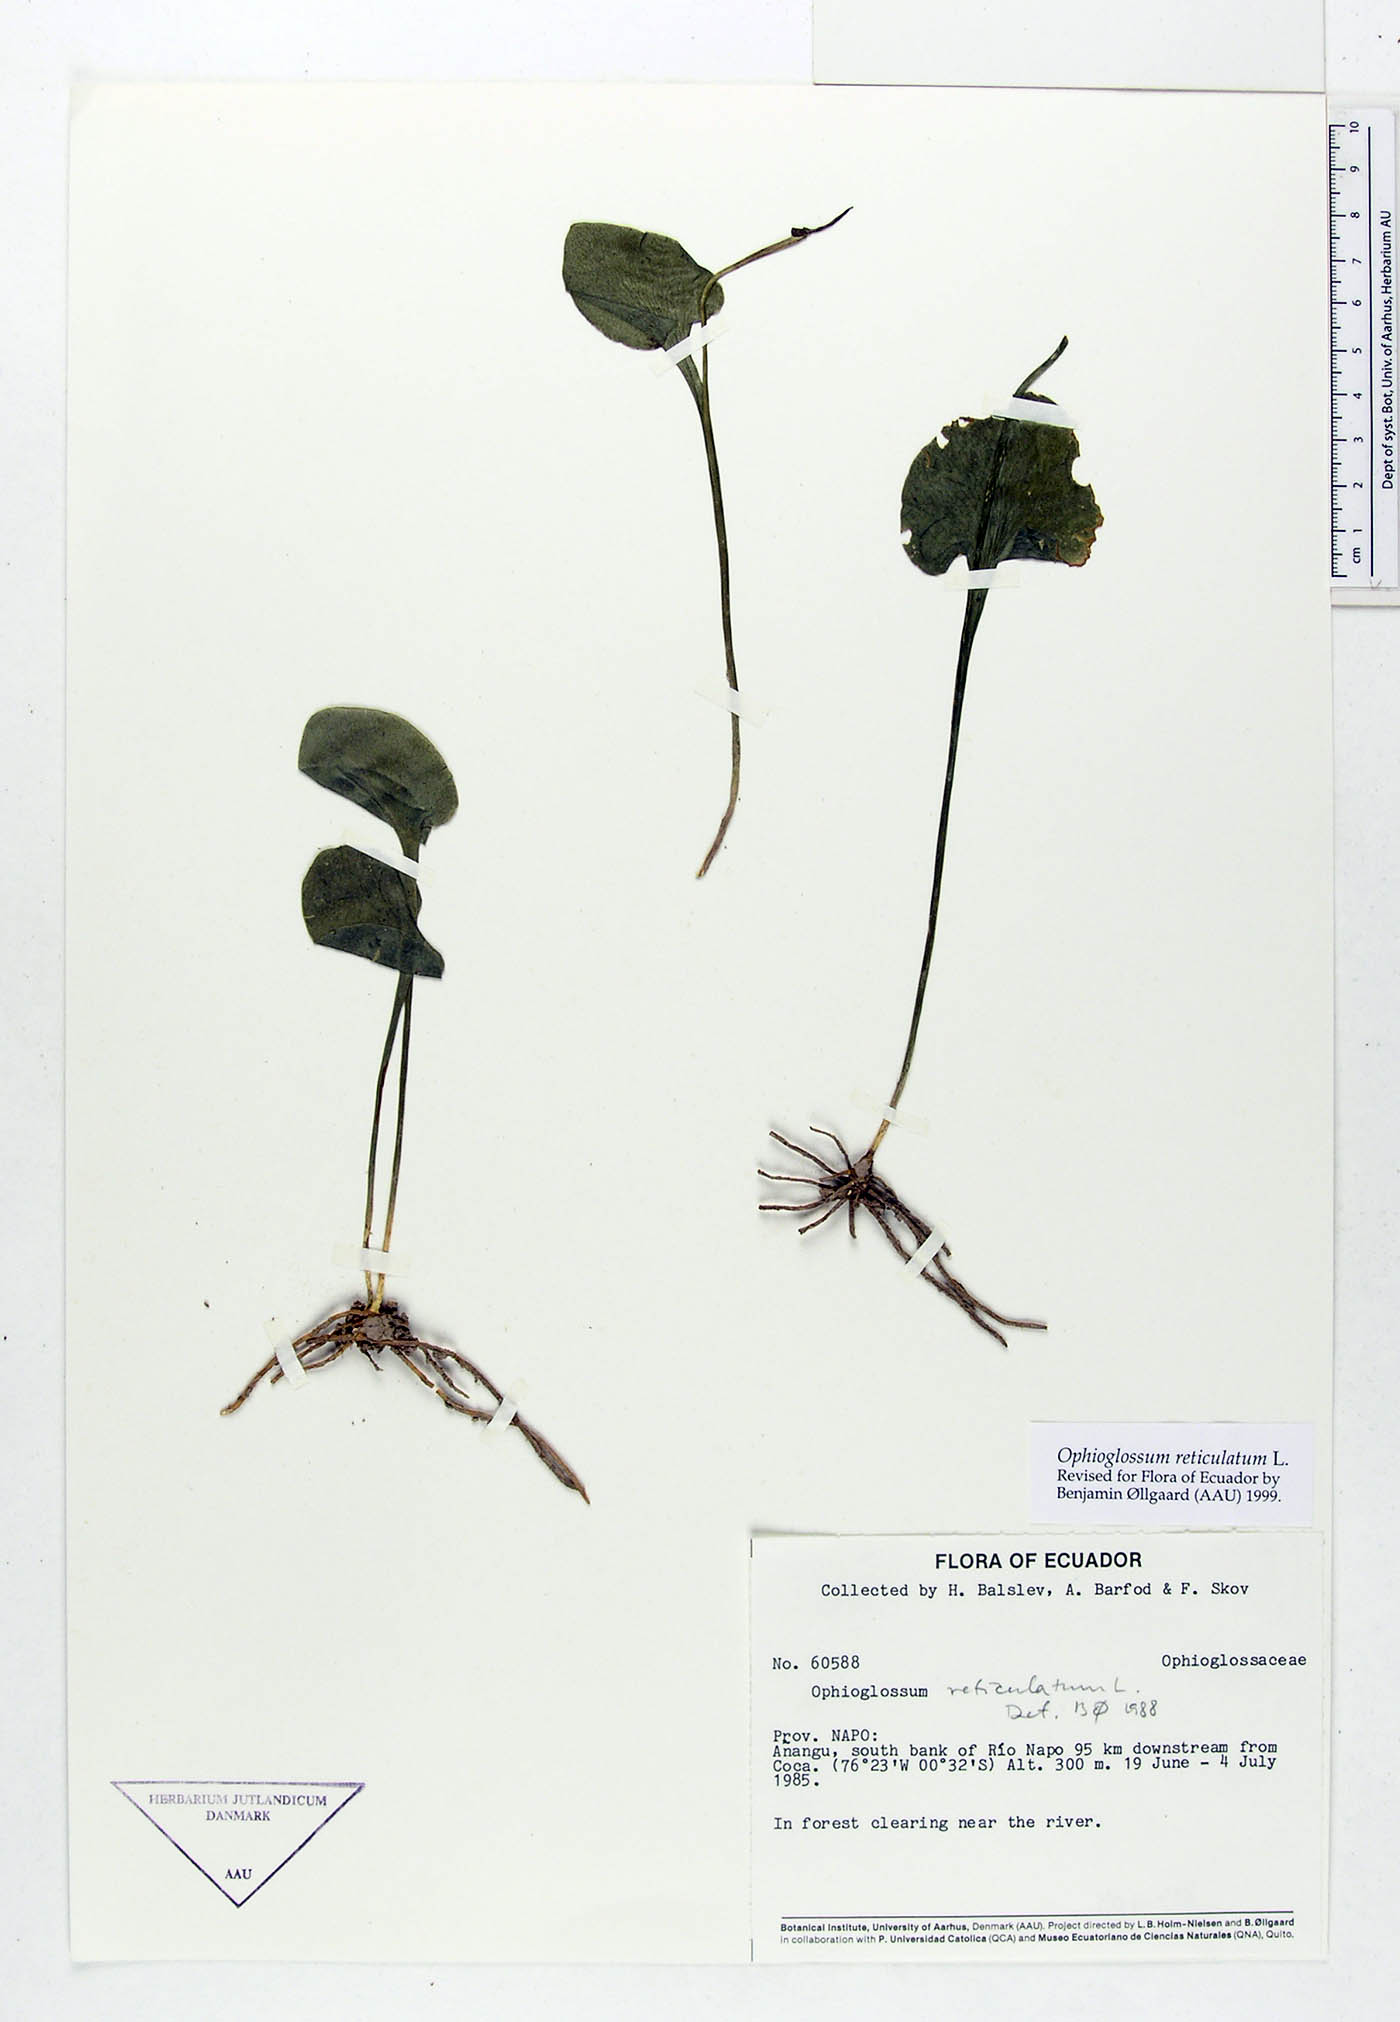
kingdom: Plantae
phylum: Tracheophyta
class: Polypodiopsida
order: Ophioglossales
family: Ophioglossaceae
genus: Ophioglossum
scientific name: Ophioglossum reticulatum
